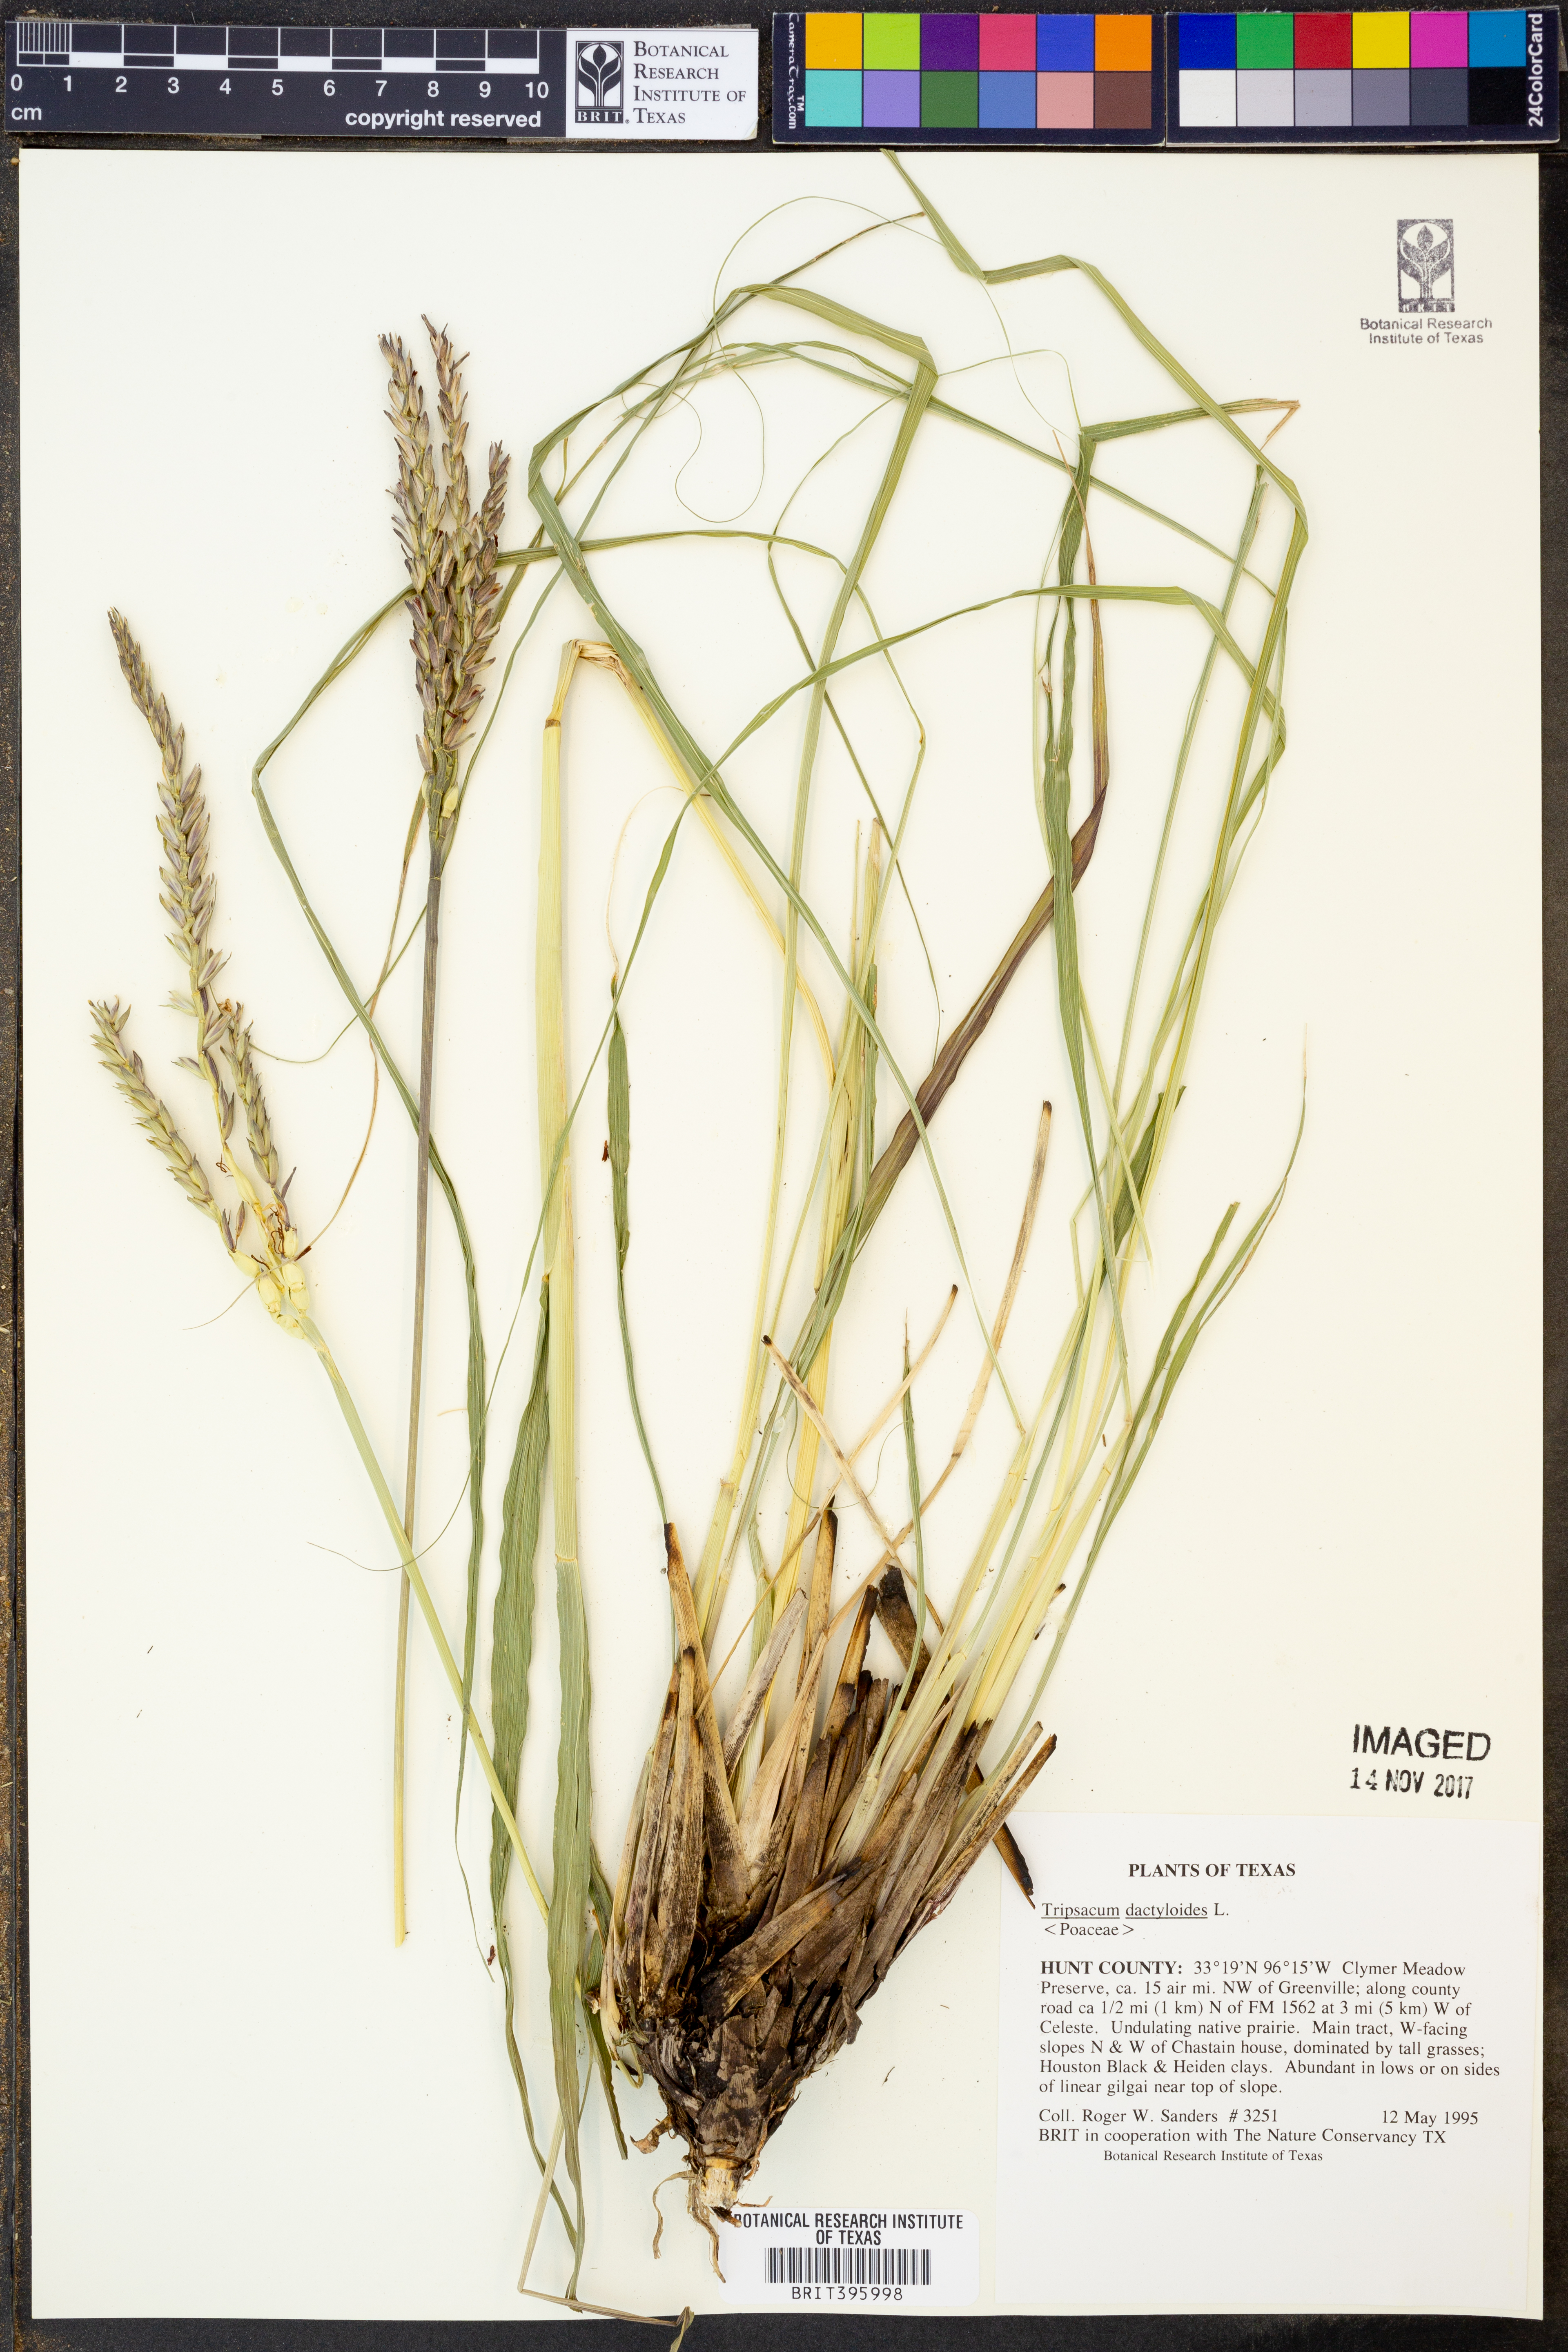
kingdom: Plantae
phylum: Tracheophyta
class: Liliopsida
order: Poales
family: Poaceae
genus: Tripsacum
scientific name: Tripsacum dactyloides
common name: Buffalo-grass
